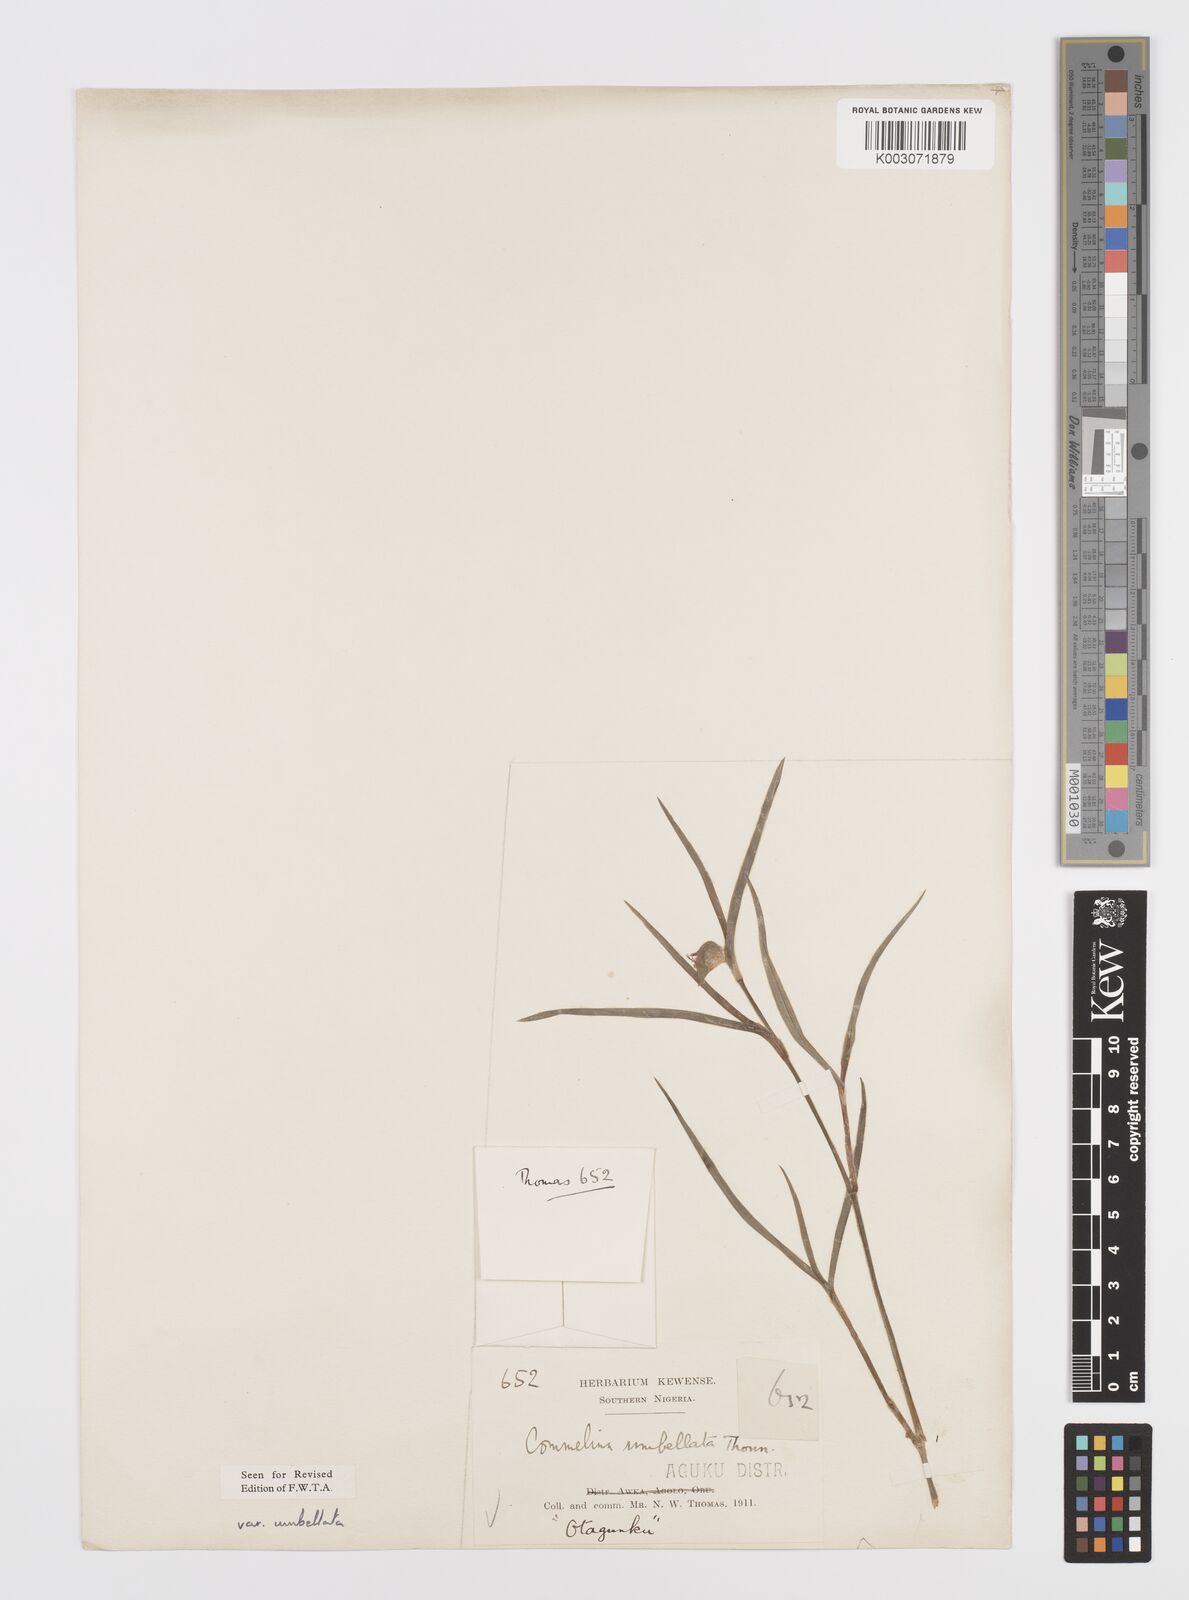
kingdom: Plantae
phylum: Tracheophyta
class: Liliopsida
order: Commelinales
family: Commelinaceae
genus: Commelina
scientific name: Commelina
